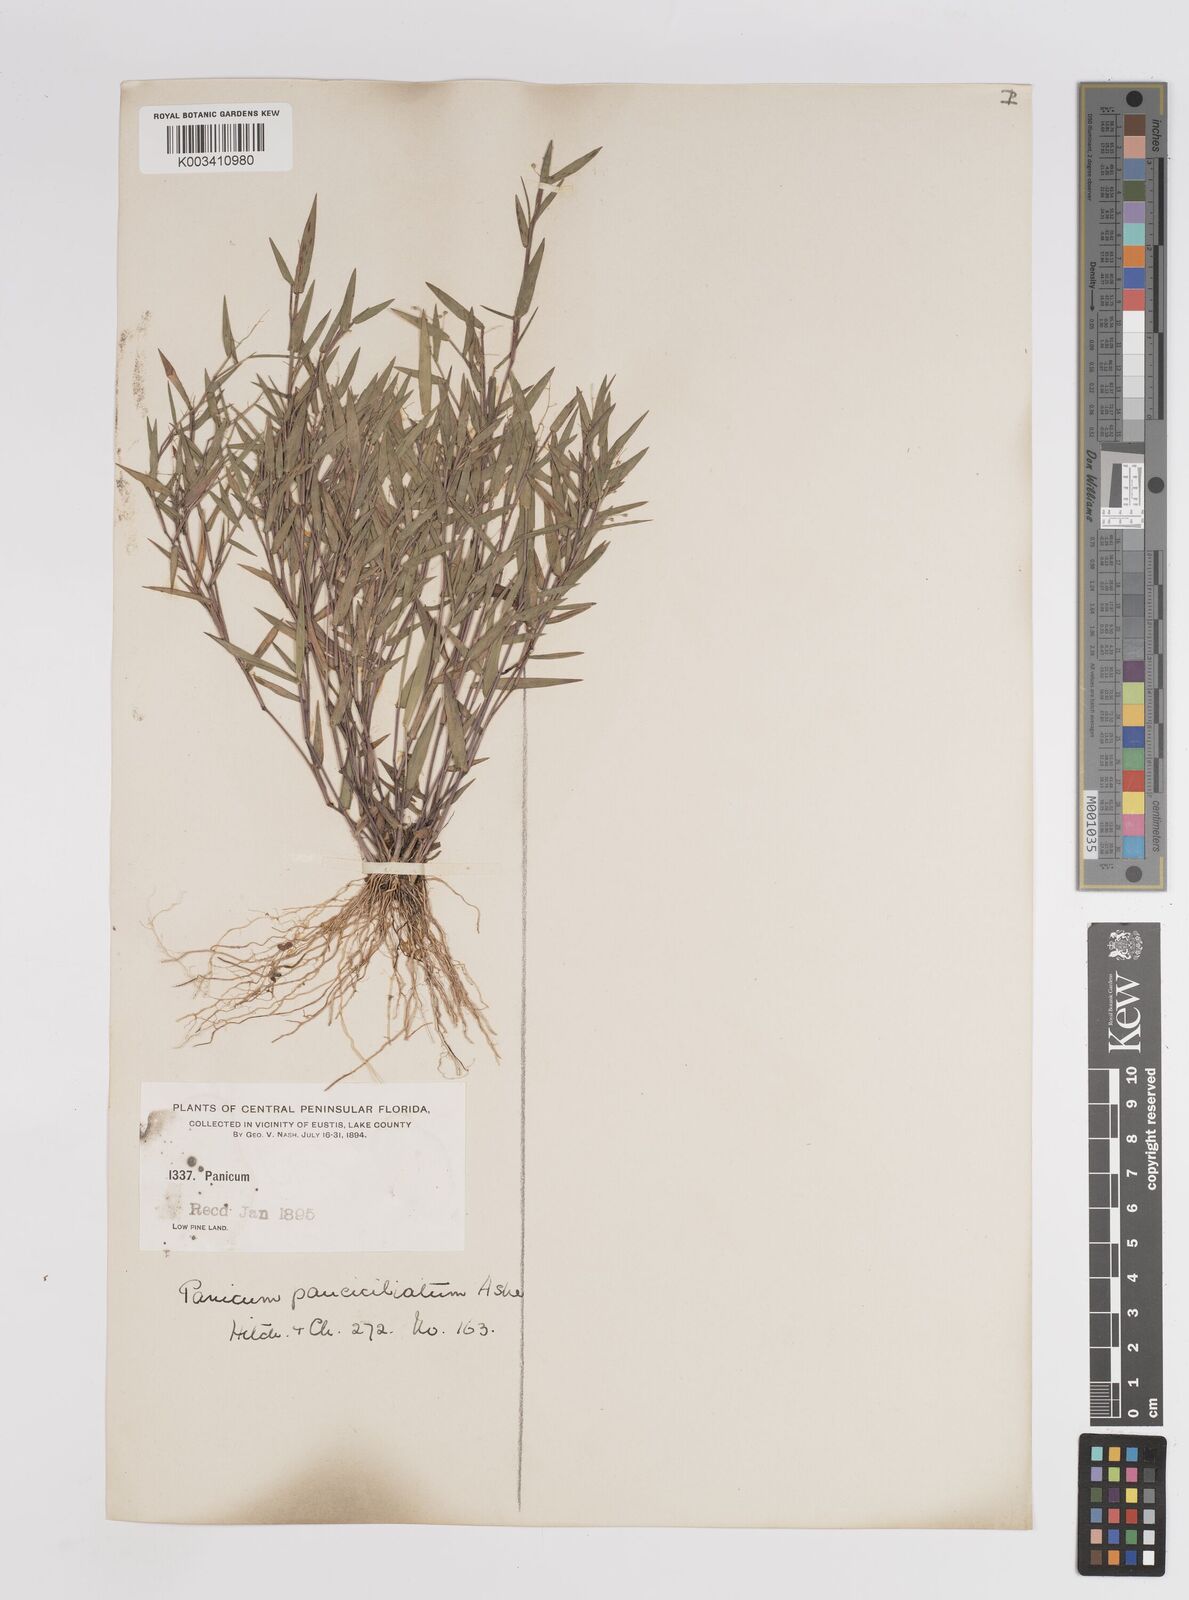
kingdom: Plantae
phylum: Tracheophyta
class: Liliopsida
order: Poales
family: Poaceae
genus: Dichanthelium
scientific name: Dichanthelium portoricense
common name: American panicgrass
